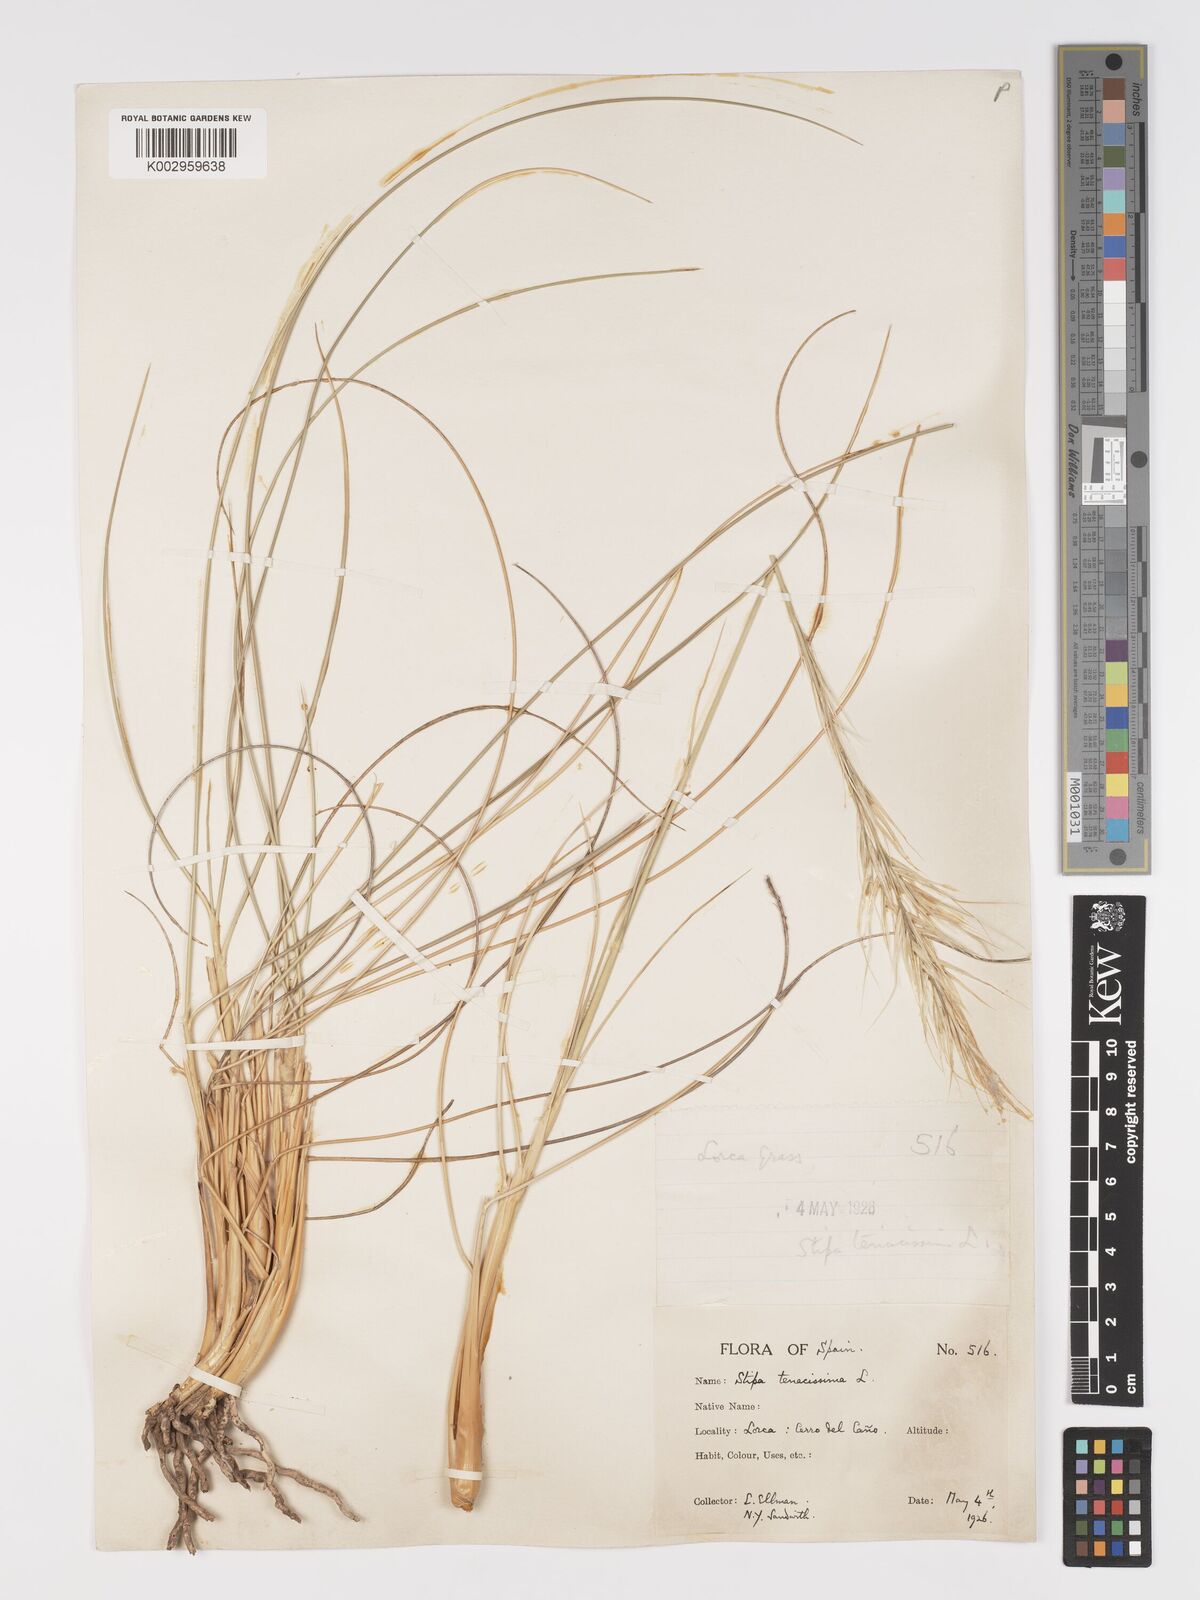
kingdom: Plantae
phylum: Tracheophyta
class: Liliopsida
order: Poales
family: Poaceae
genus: Macrochloa
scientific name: Macrochloa tenacissima
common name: Alfa grass
